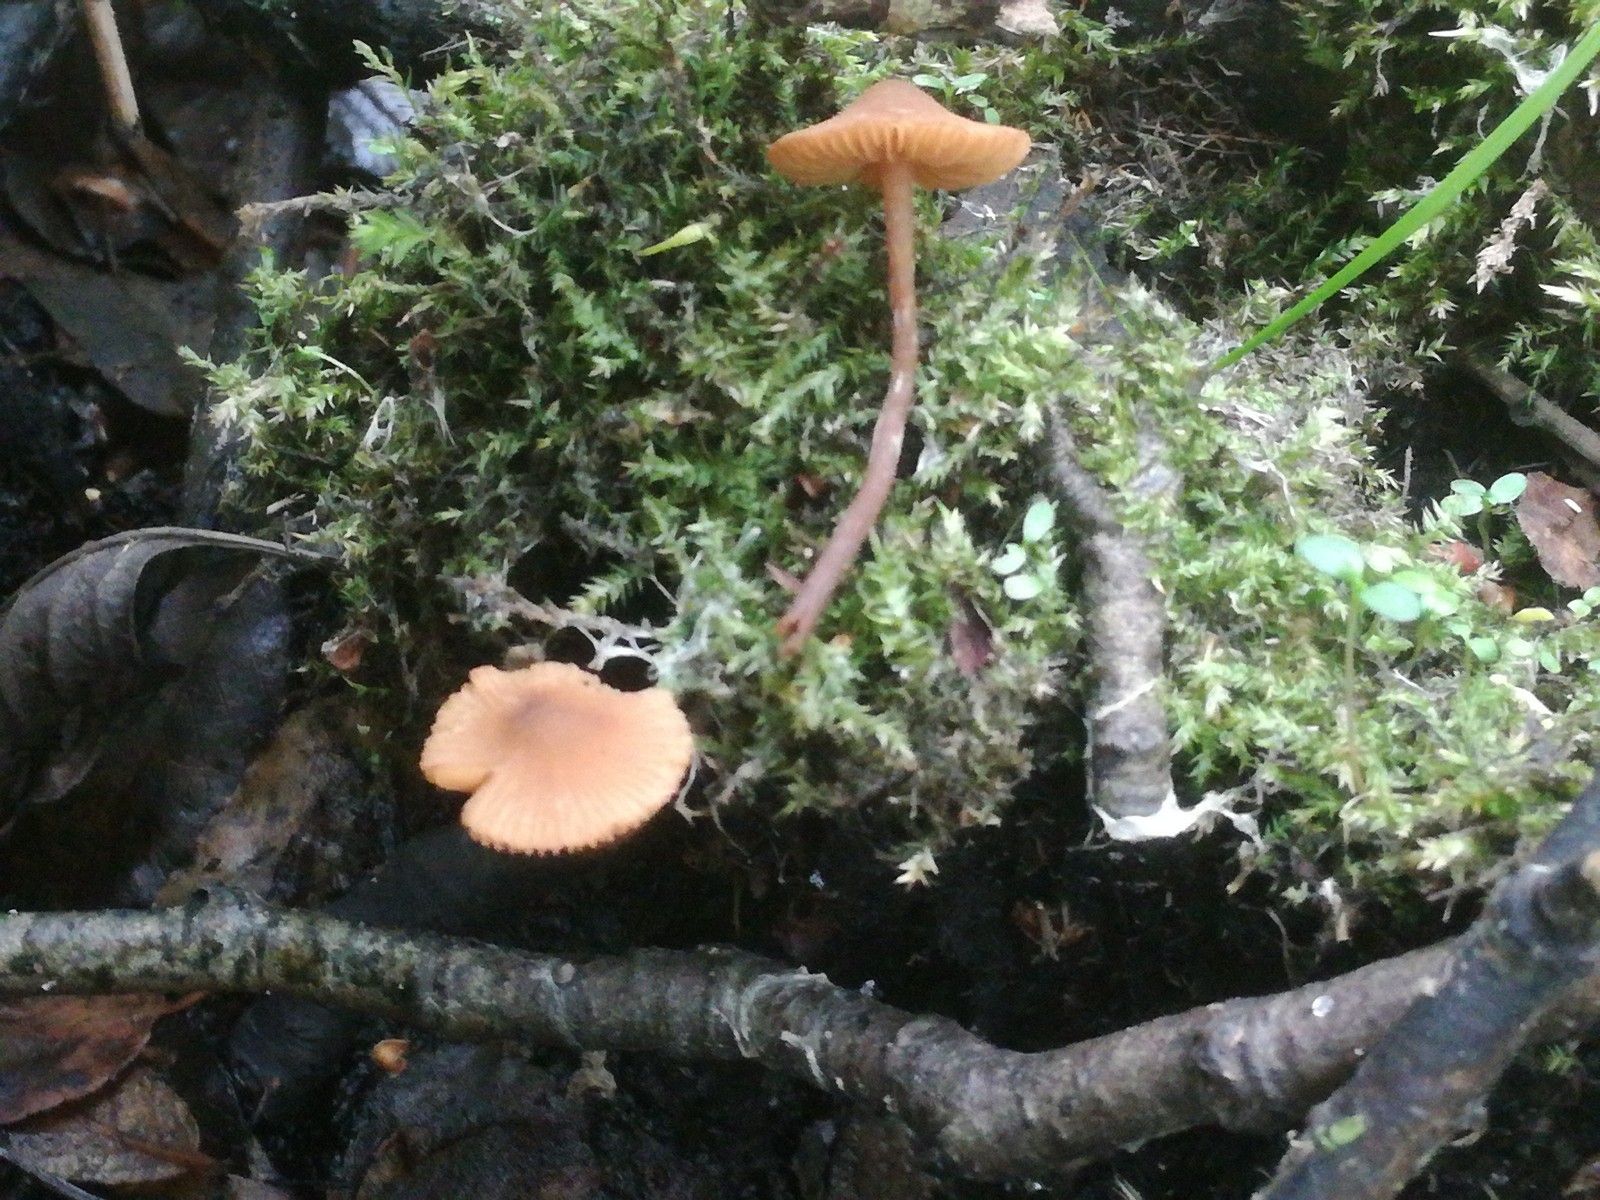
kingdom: Fungi
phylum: Basidiomycota
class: Agaricomycetes
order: Agaricales
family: Hymenogastraceae
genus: Naucoria
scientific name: Naucoria scolecina
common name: mørk elle-knaphat
